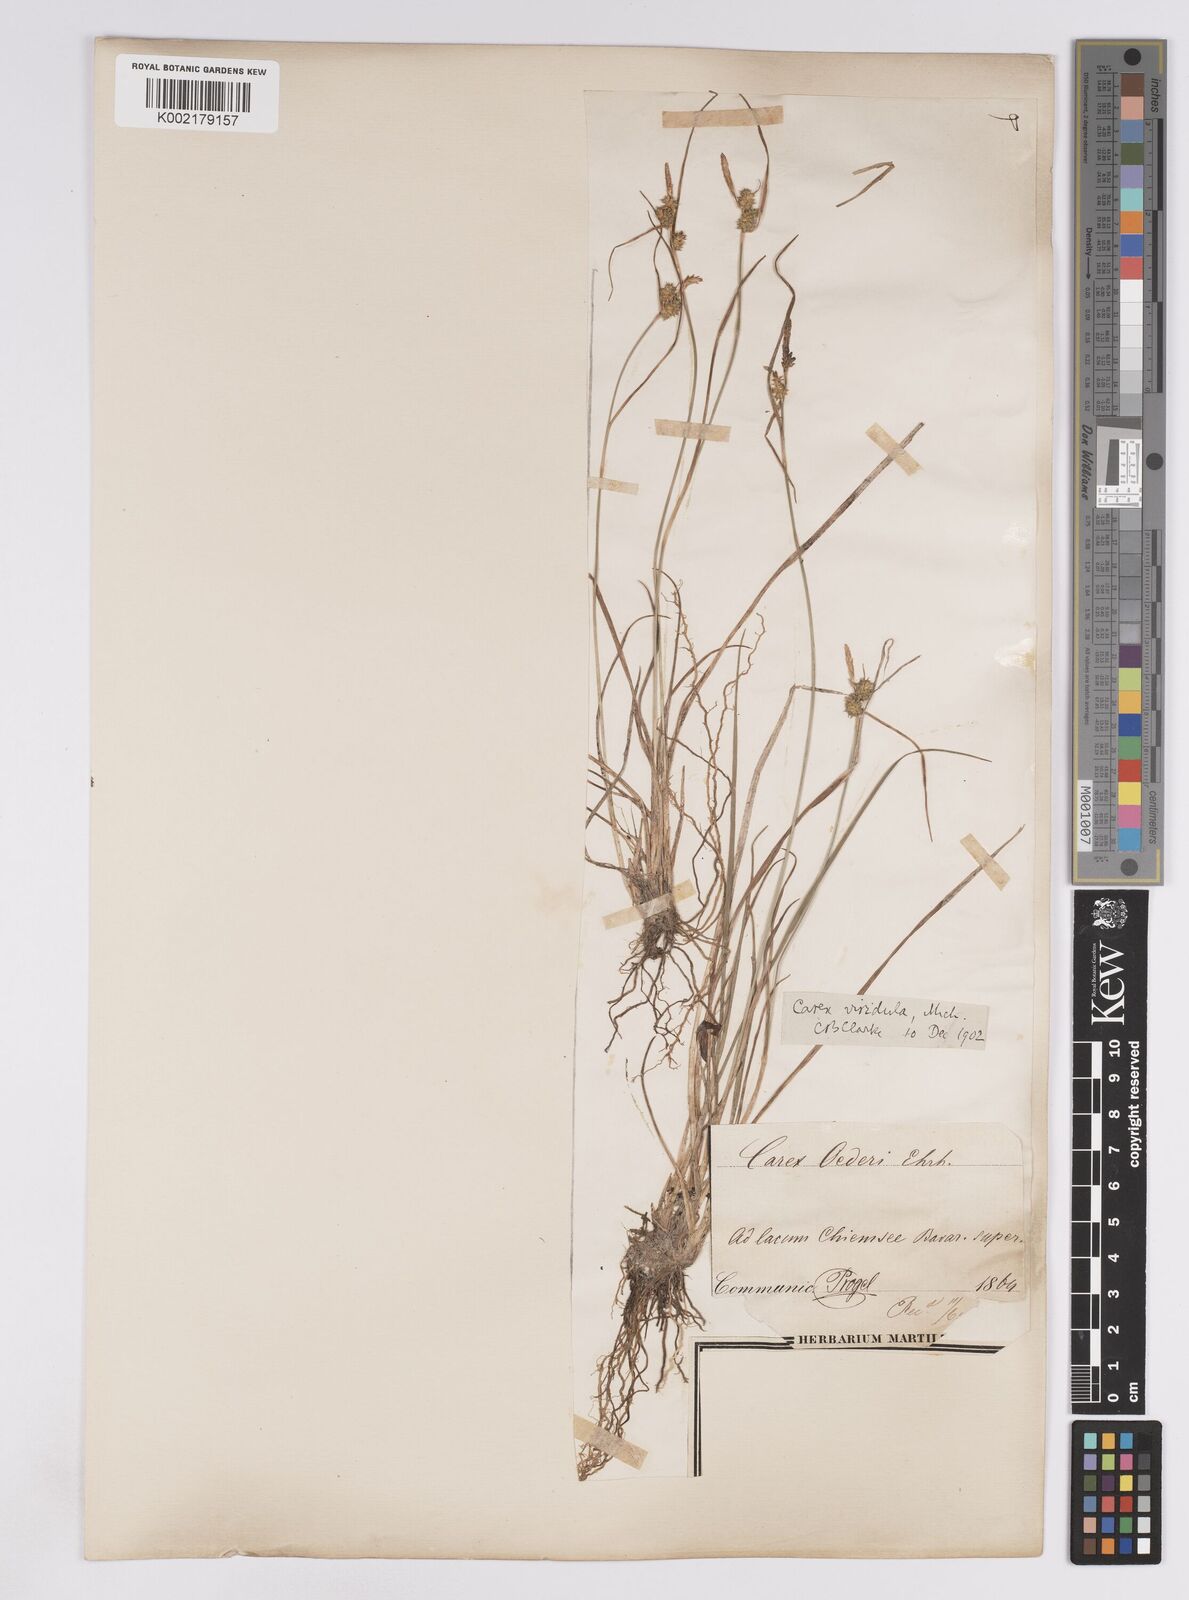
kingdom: Plantae
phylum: Tracheophyta
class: Liliopsida
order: Poales
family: Cyperaceae
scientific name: Cyperaceae
